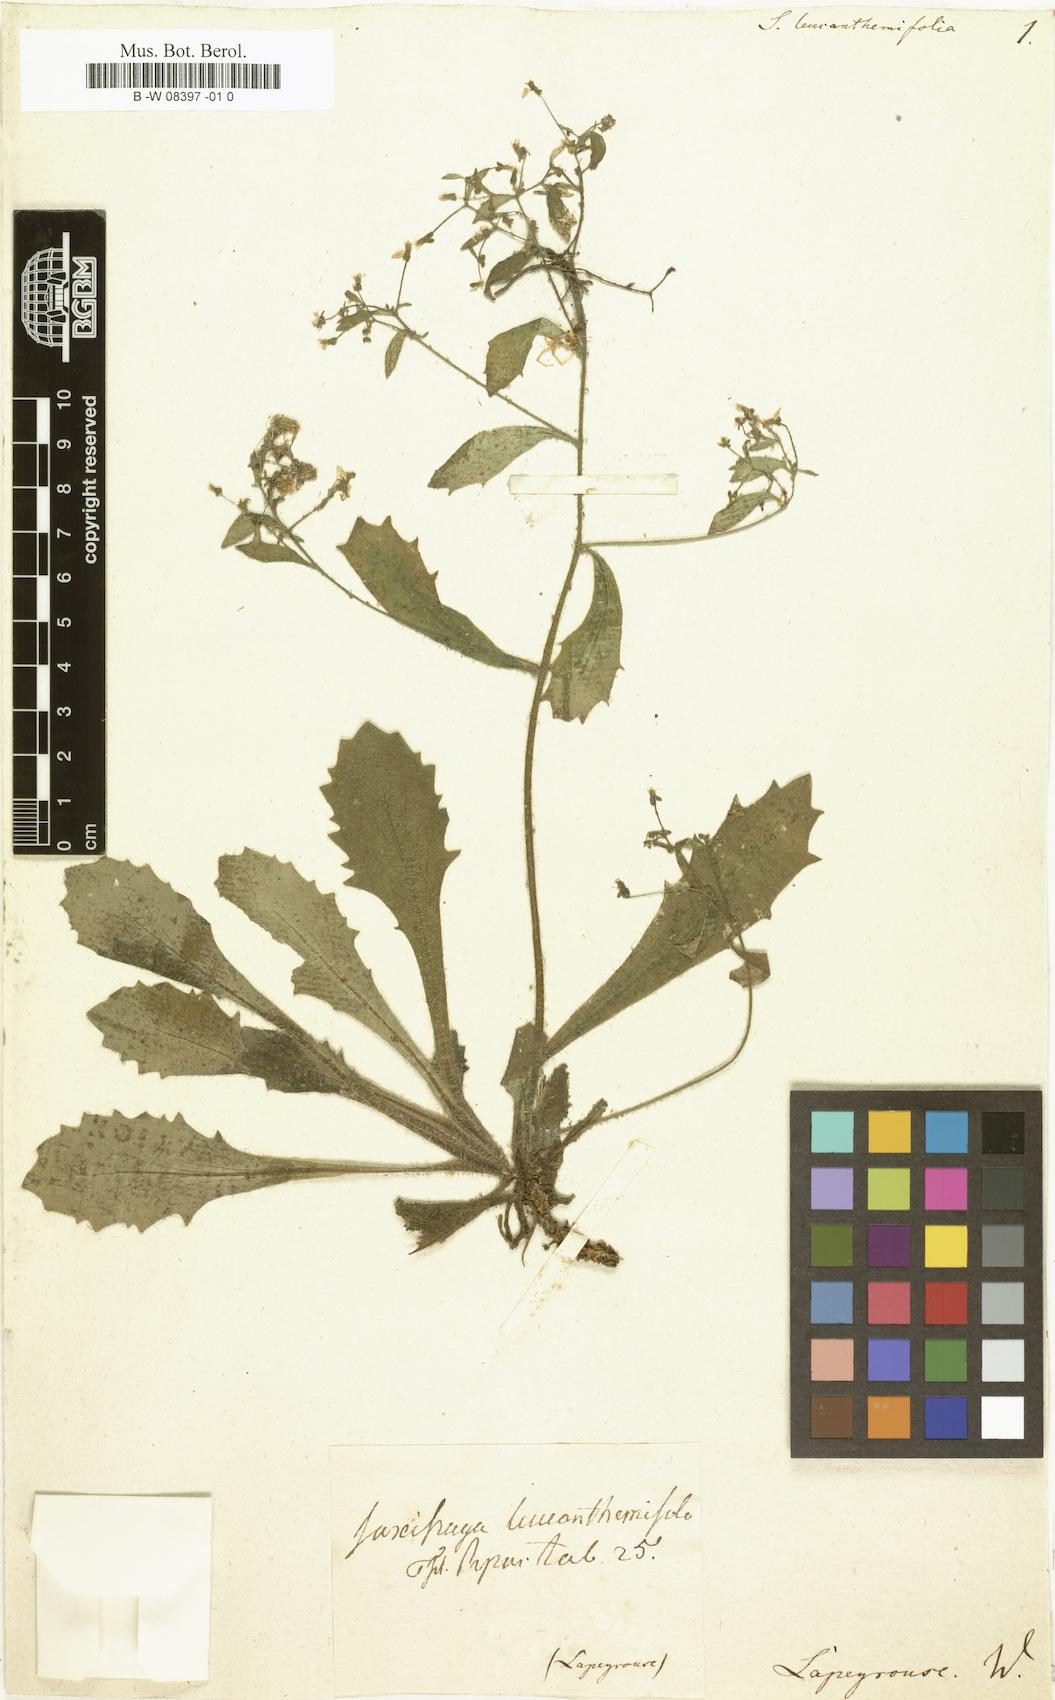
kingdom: Plantae
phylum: Tracheophyta
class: Magnoliopsida
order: Saxifragales
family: Saxifragaceae
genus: Micranthes
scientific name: Micranthes
